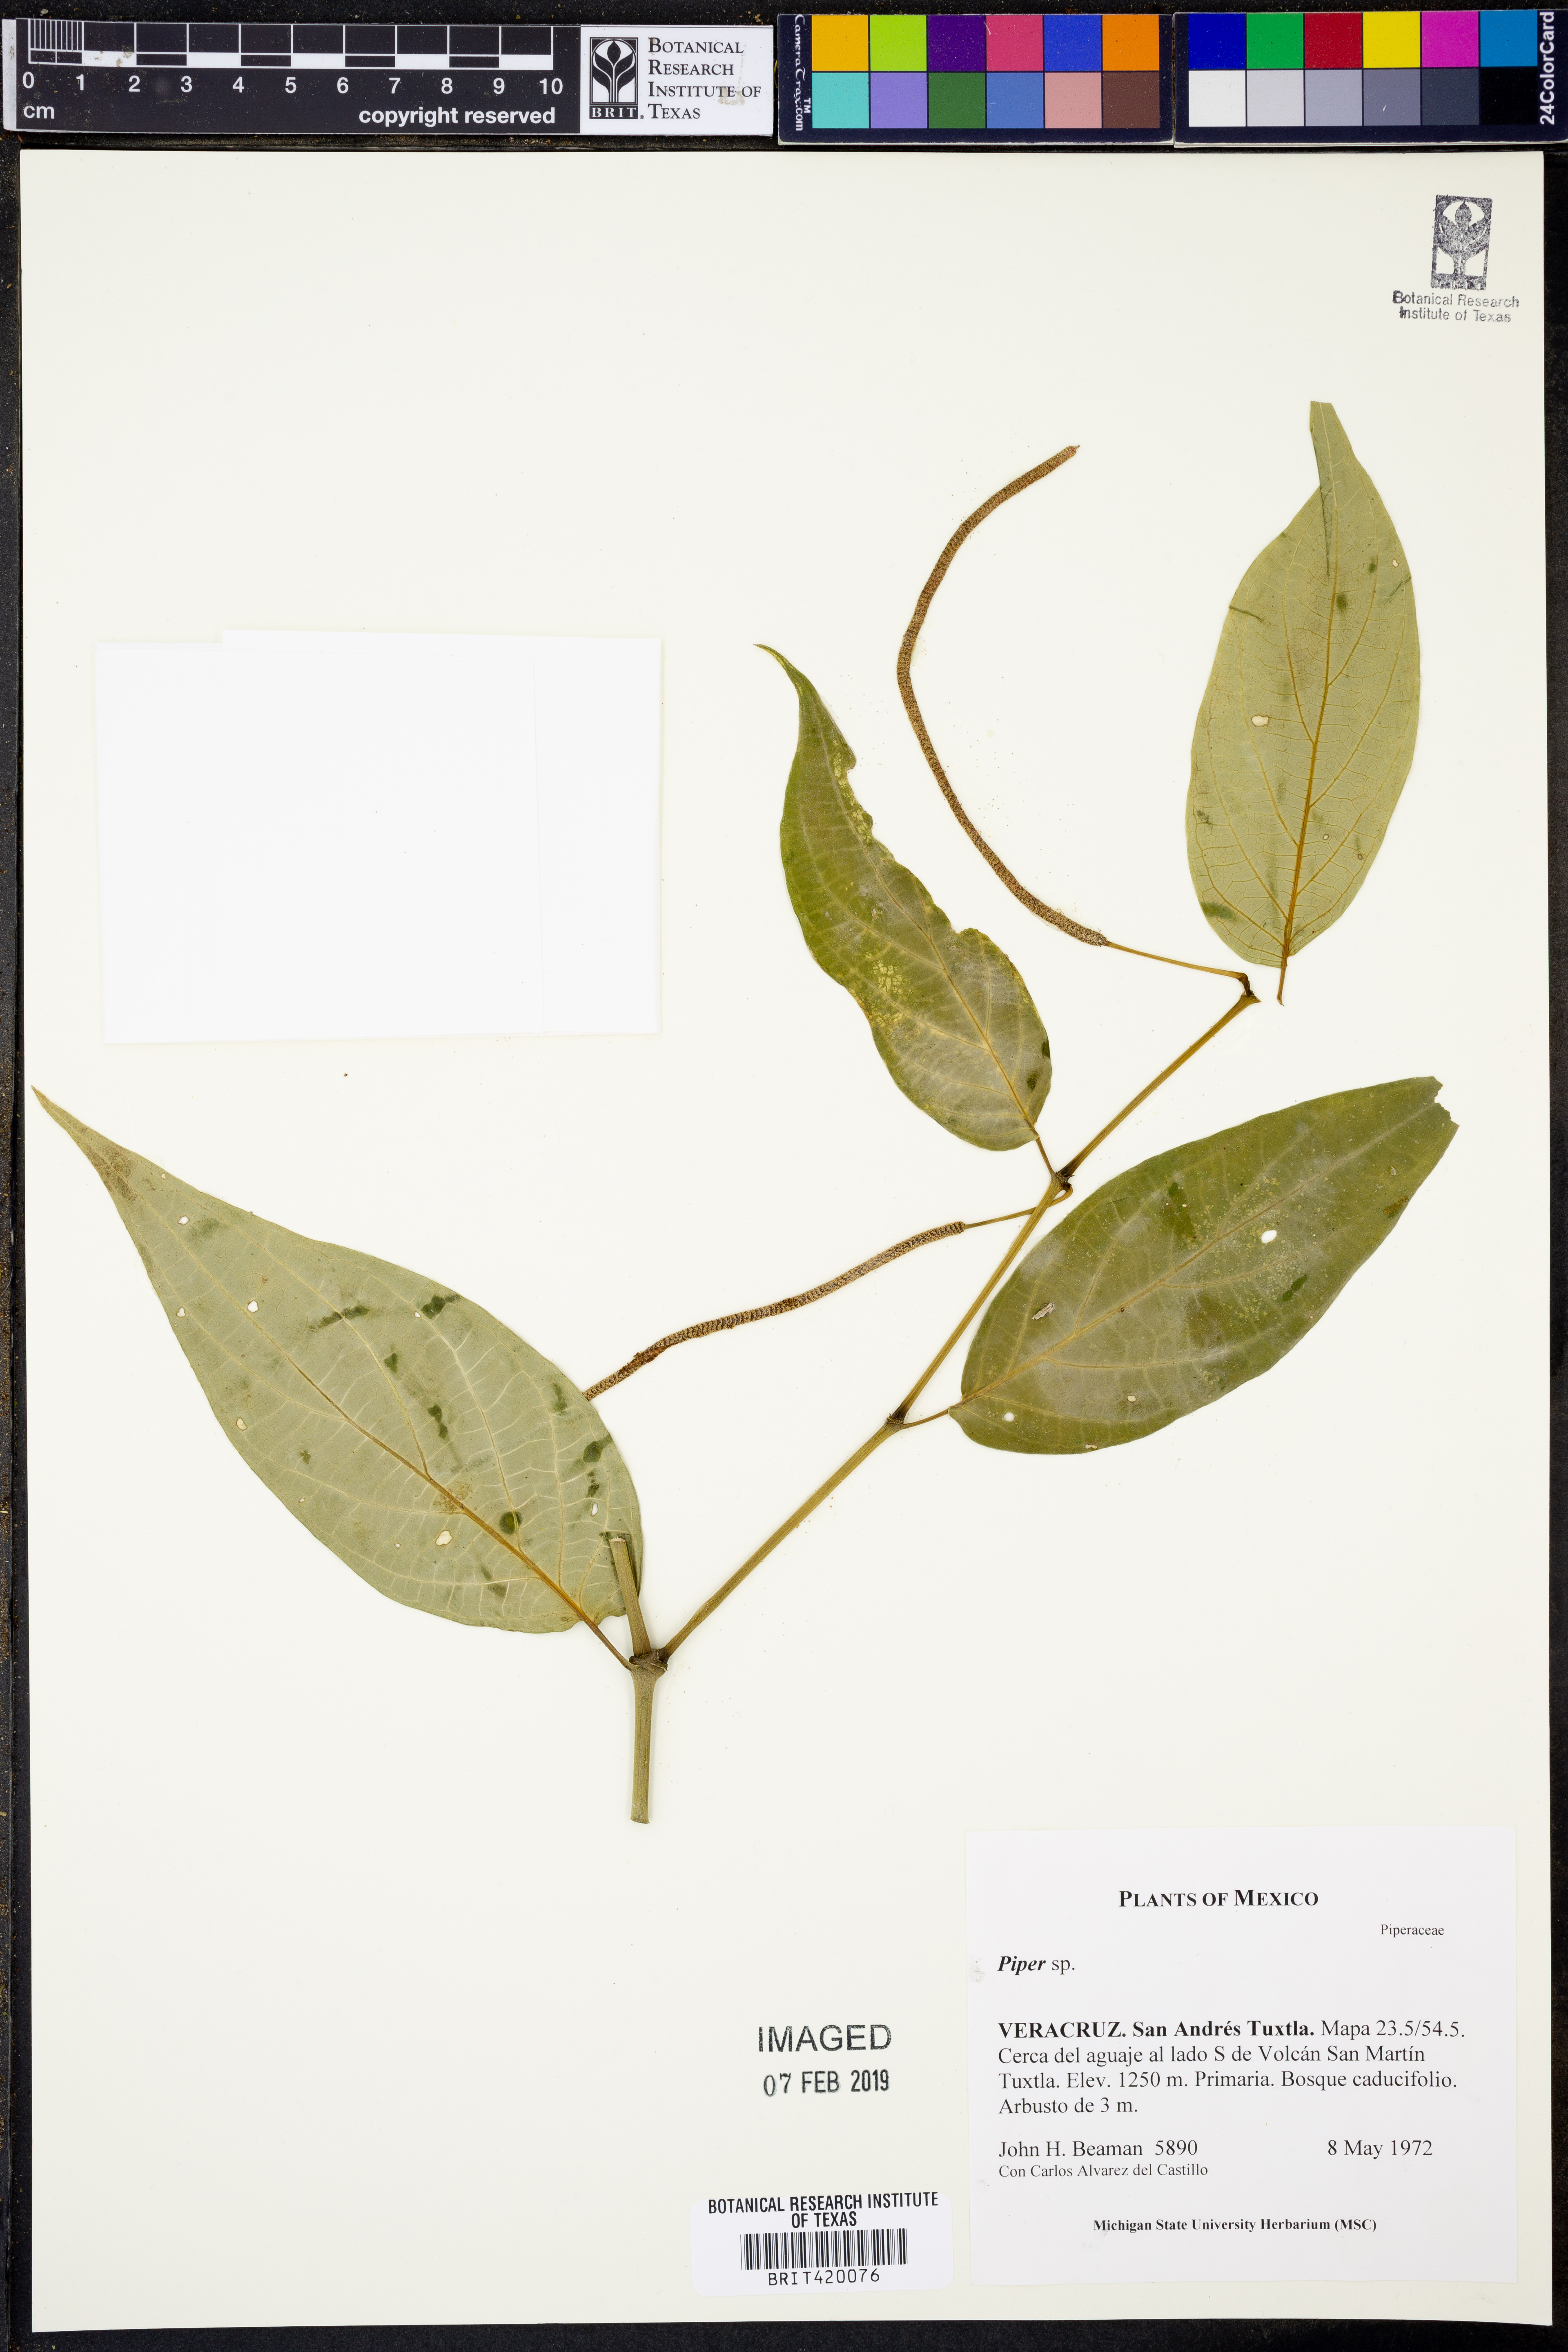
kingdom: Plantae
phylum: Tracheophyta
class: Magnoliopsida
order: Piperales
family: Piperaceae
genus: Piper
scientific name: Piper
